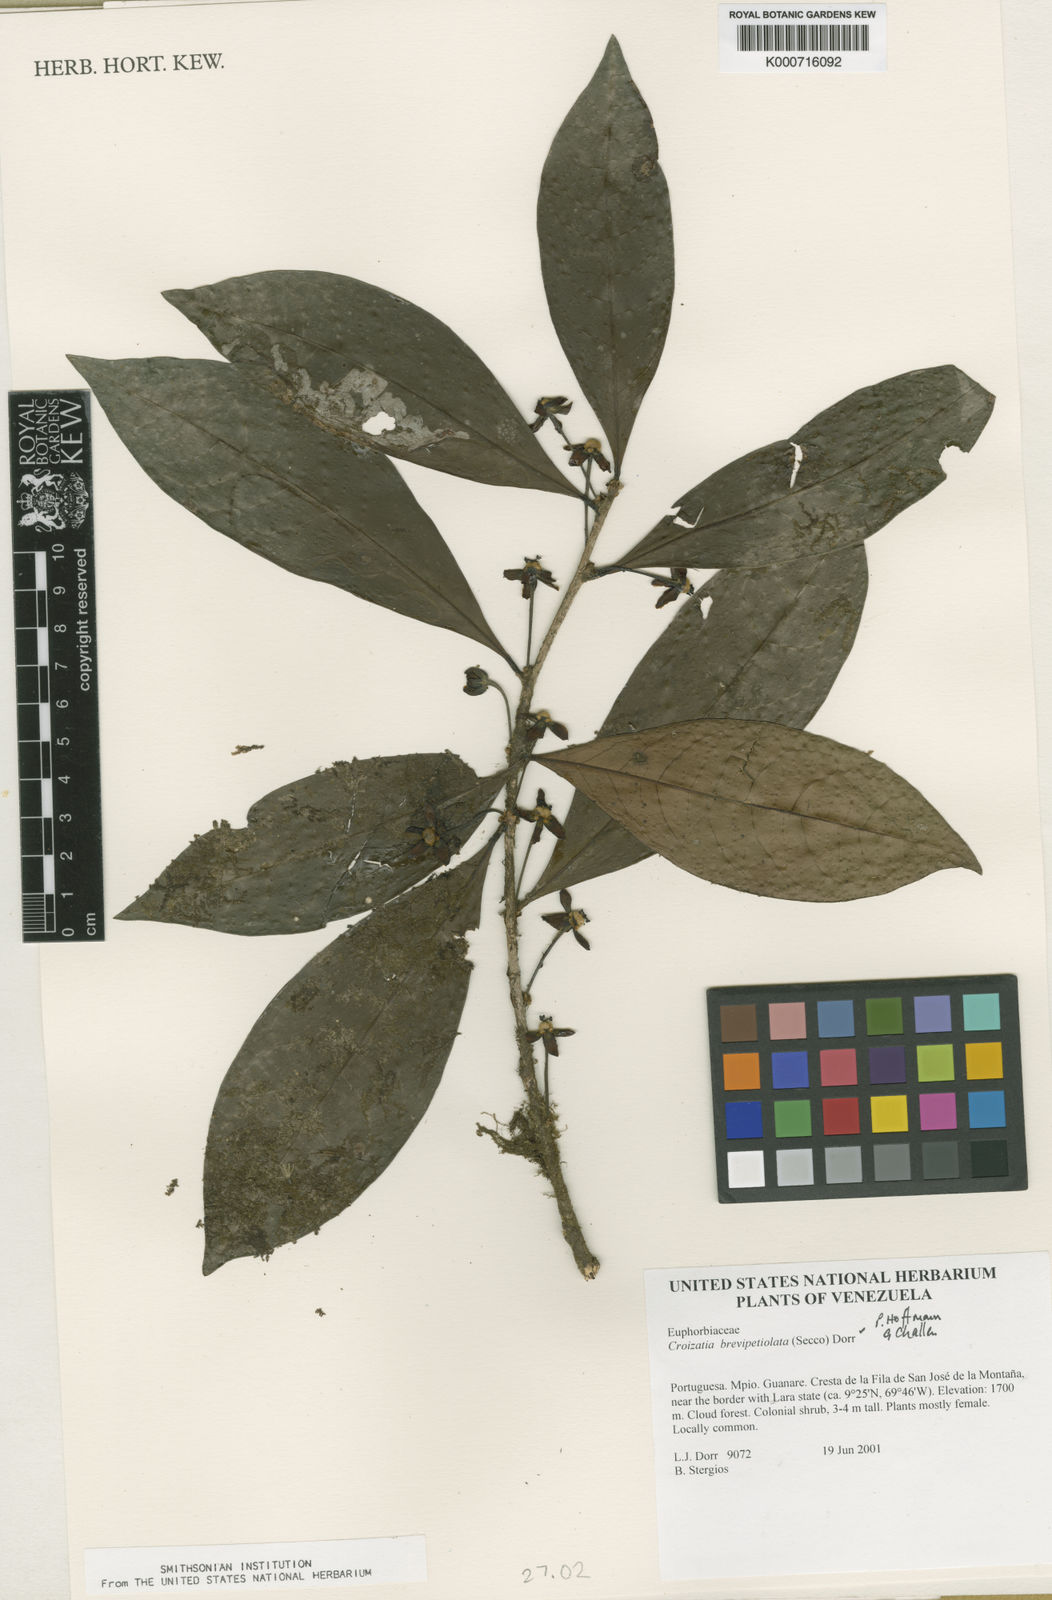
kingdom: Plantae
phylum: Tracheophyta
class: Magnoliopsida
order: Malpighiales
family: Phyllanthaceae
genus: Croizatia
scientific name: Croizatia brevipetiolata
